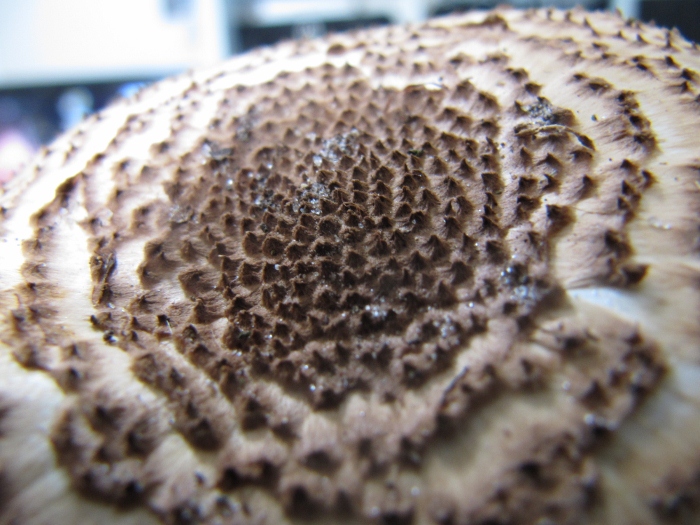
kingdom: Fungi
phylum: Basidiomycota
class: Agaricomycetes
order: Agaricales
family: Agaricaceae
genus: Echinoderma
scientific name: Echinoderma asperum
